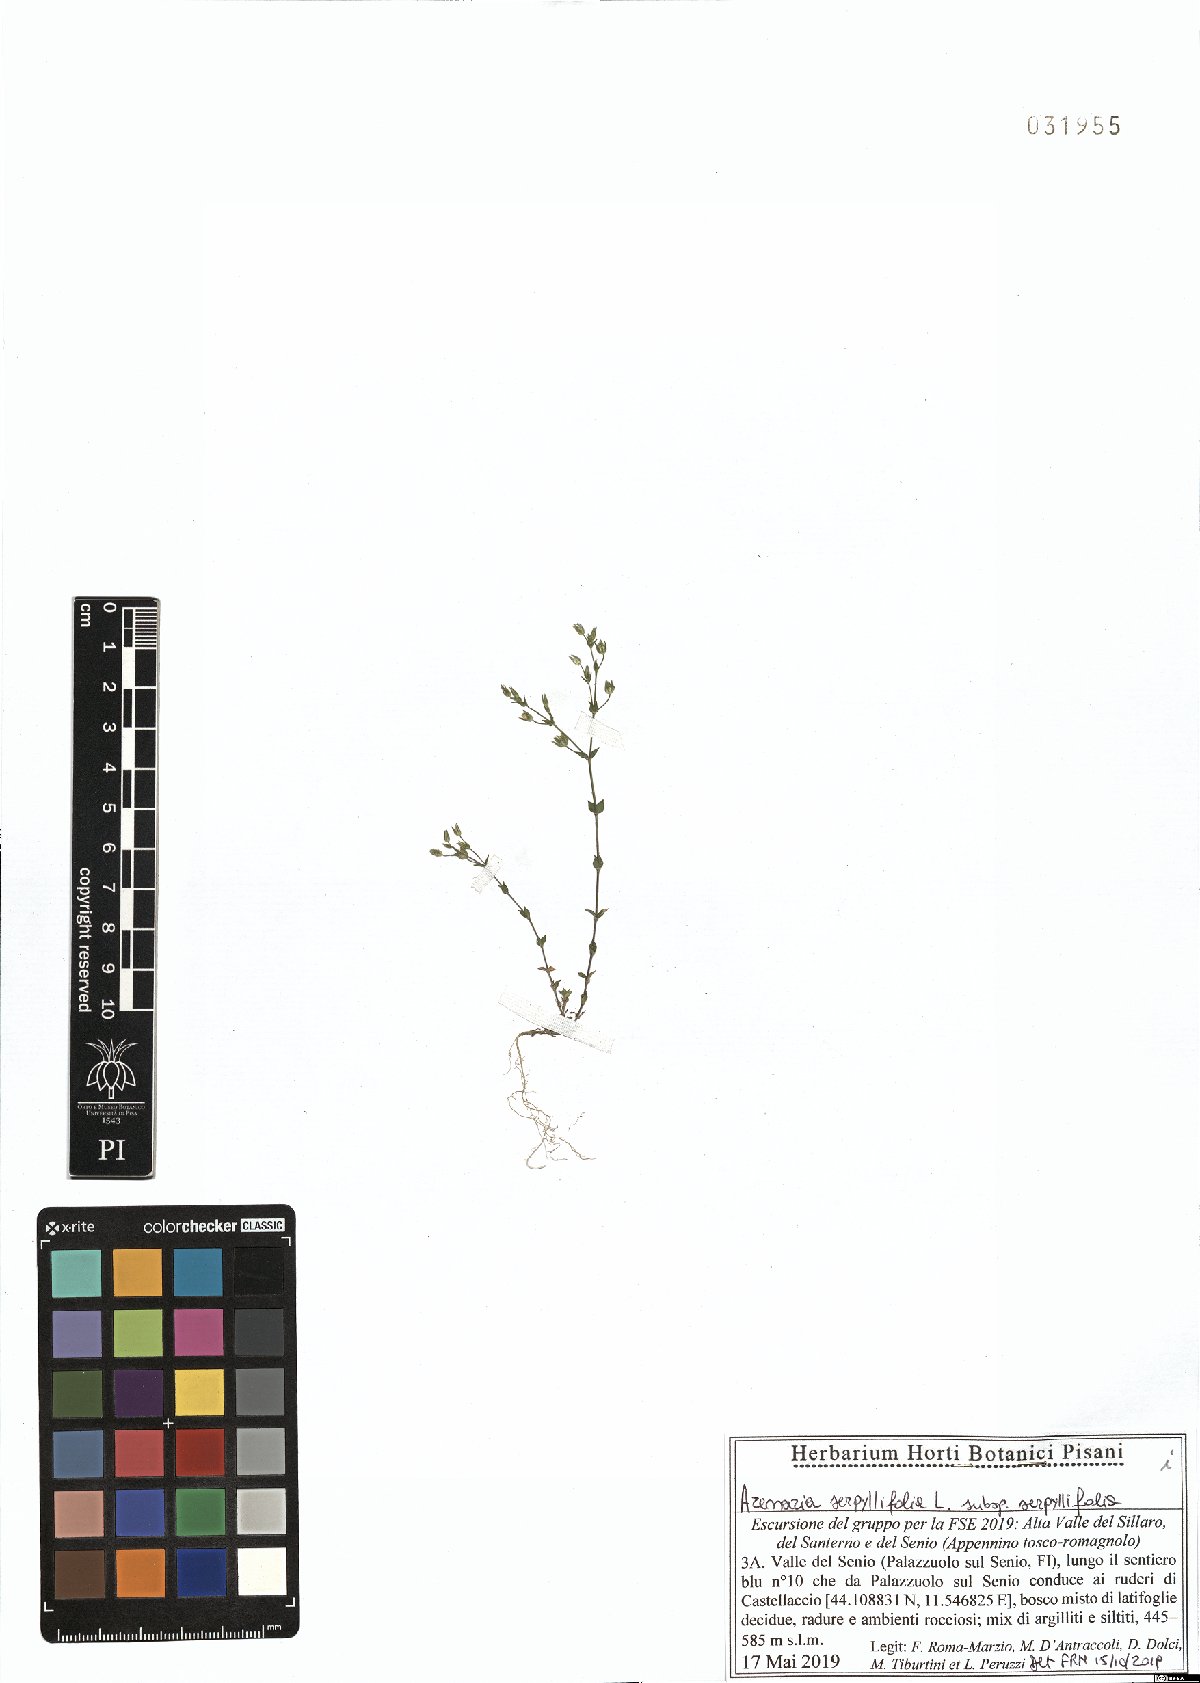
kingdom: Plantae
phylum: Tracheophyta
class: Magnoliopsida
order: Caryophyllales
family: Caryophyllaceae
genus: Arenaria
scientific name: Arenaria serpyllifolia
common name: Thyme-leaved sandwort
